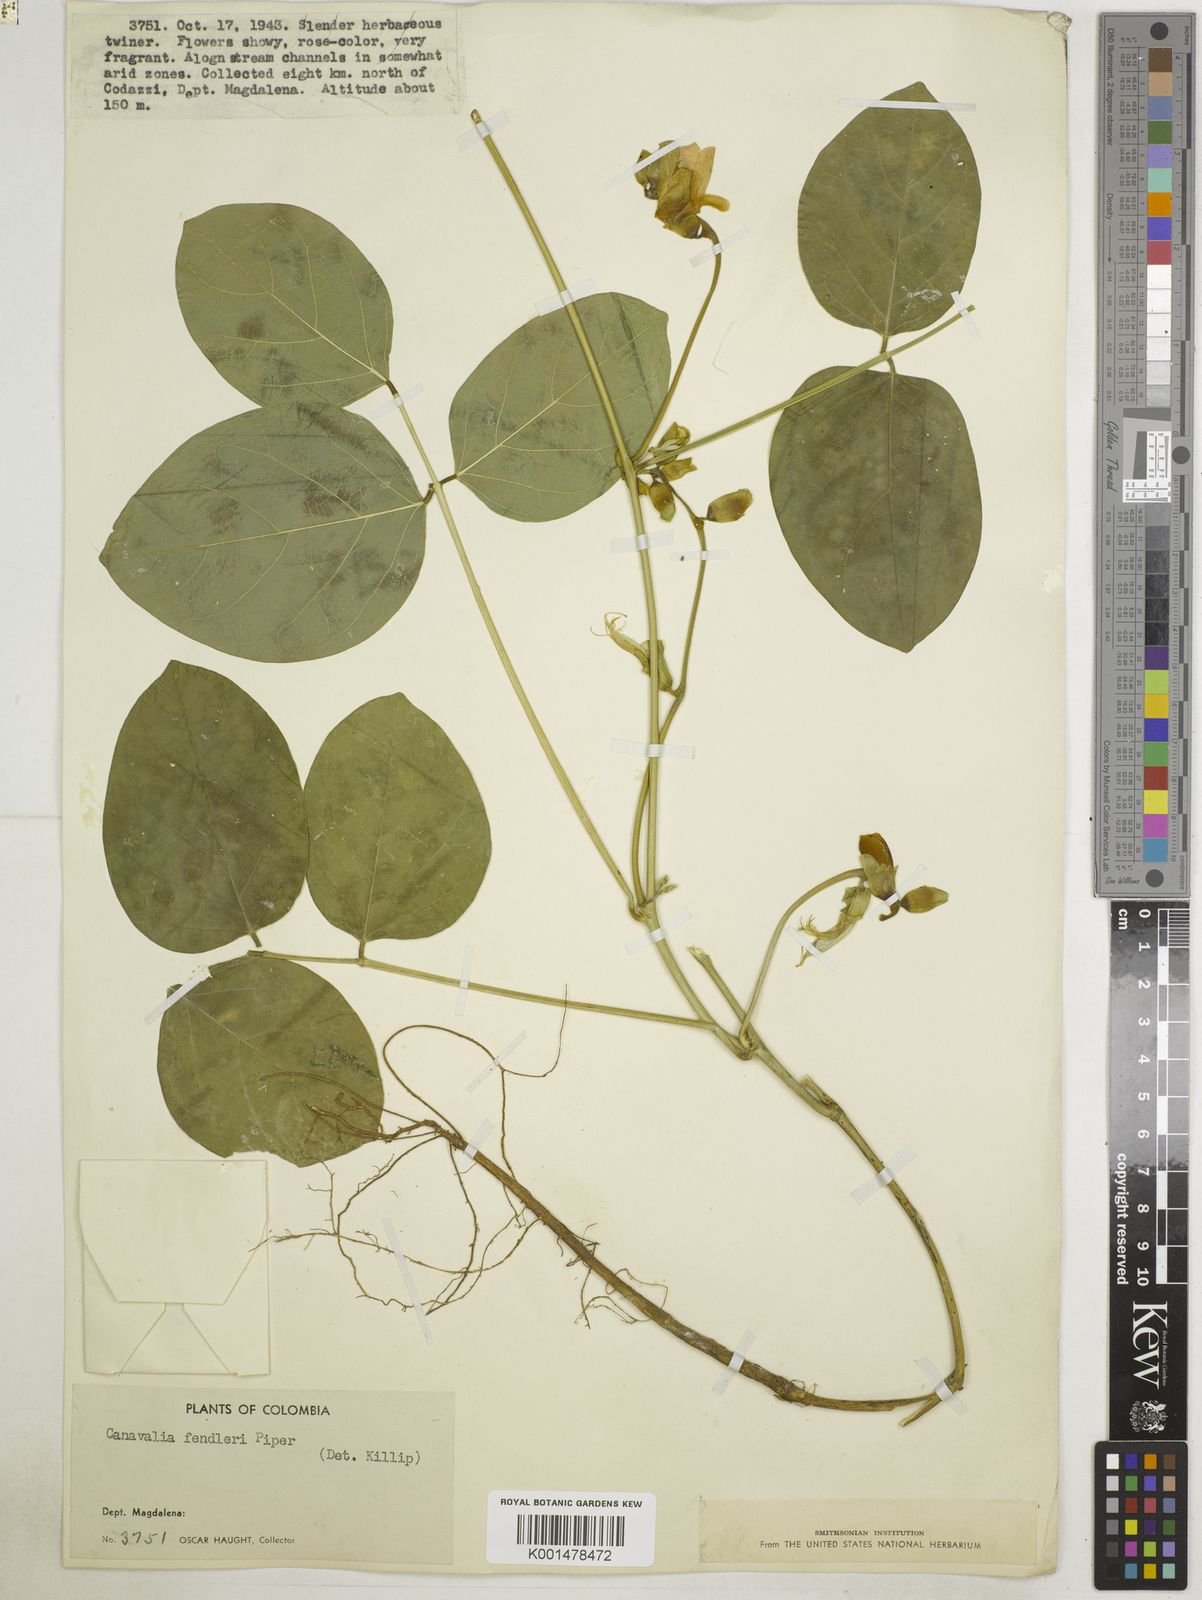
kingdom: Plantae
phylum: Tracheophyta
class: Magnoliopsida
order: Fabales
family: Fabaceae
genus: Canavalia
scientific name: Canavalia brasiliensis
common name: Barbicou-bean
